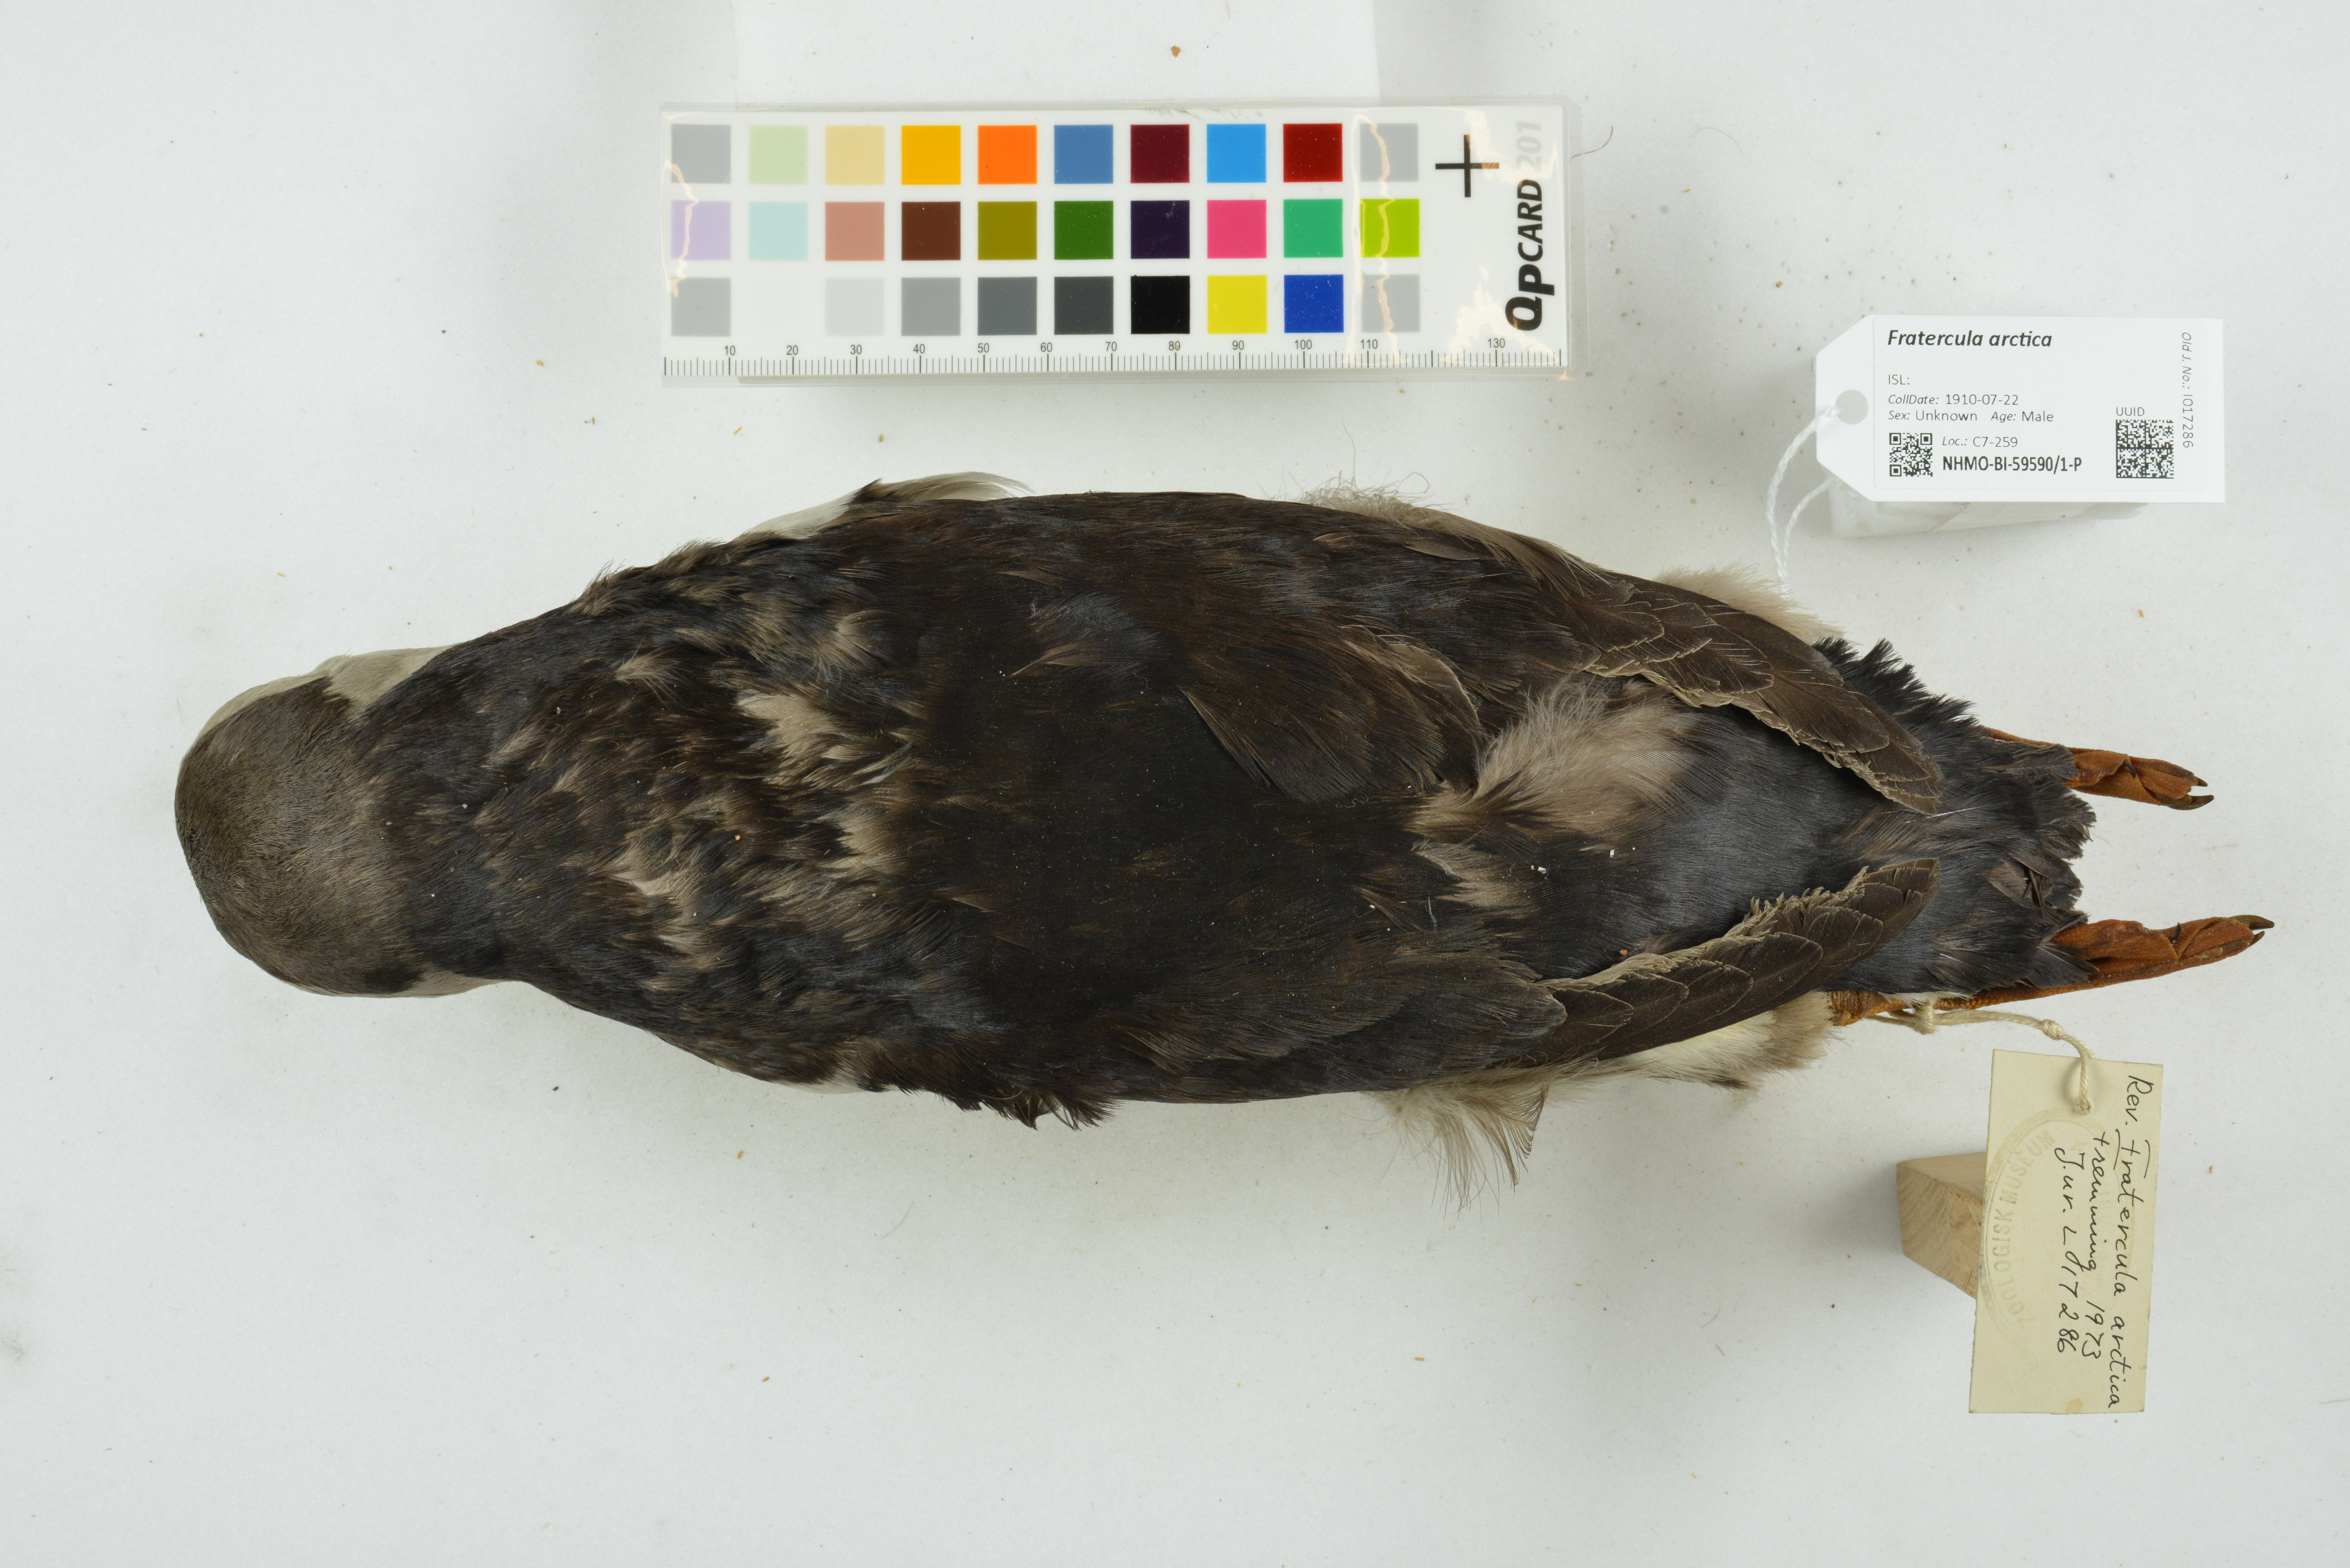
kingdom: Animalia
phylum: Chordata
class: Aves
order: Charadriiformes
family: Alcidae
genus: Fratercula
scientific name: Fratercula arctica
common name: Atlantic puffin
